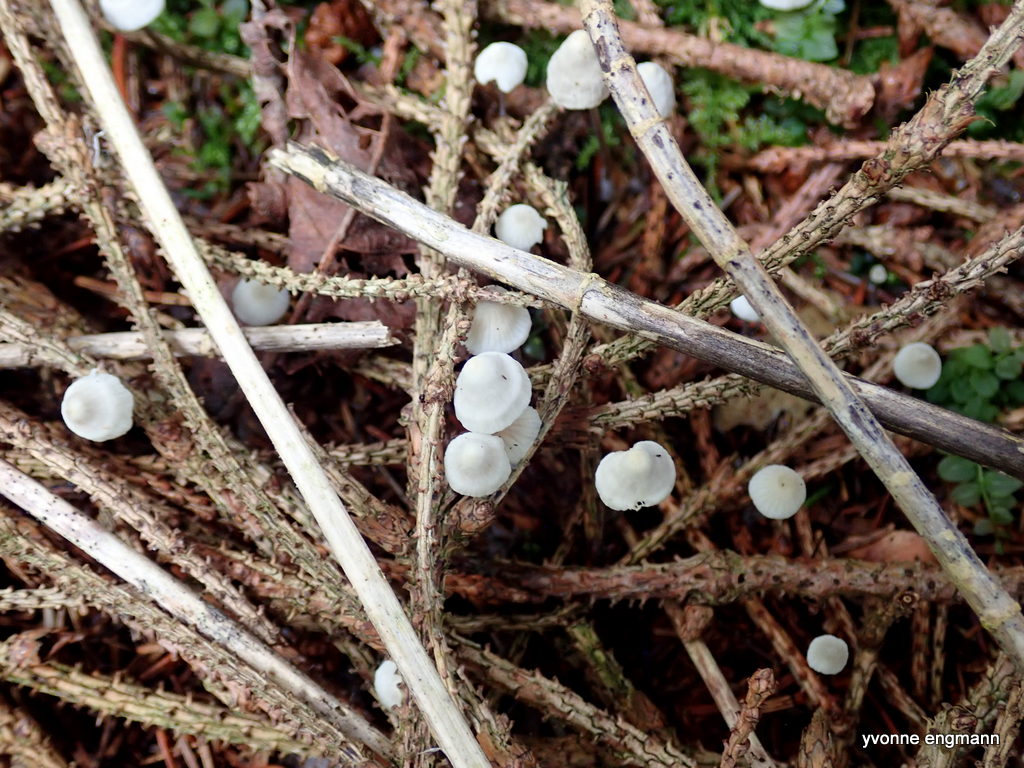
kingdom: Fungi
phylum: Basidiomycota
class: Agaricomycetes
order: Agaricales
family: Mycenaceae
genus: Mycena
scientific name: Mycena flavescens
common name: grågul huesvamp
